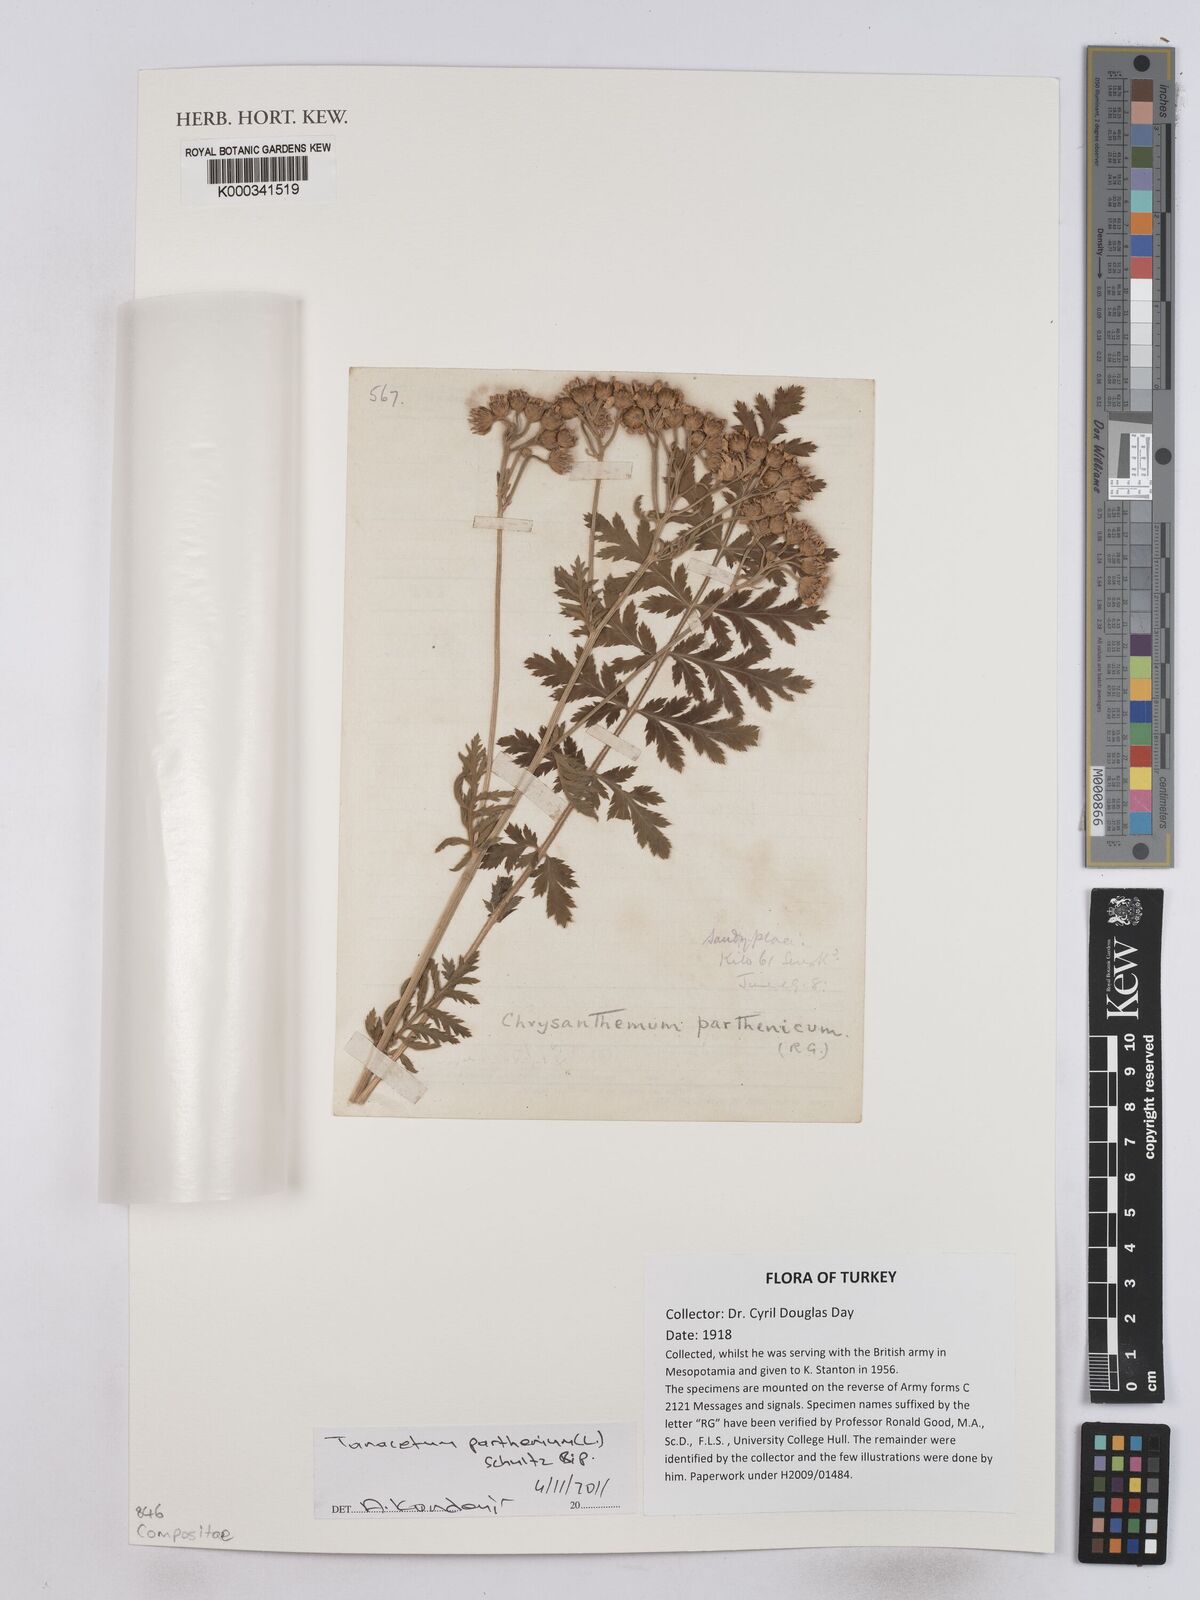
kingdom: Plantae
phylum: Tracheophyta
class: Magnoliopsida
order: Asterales
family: Asteraceae
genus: Tanacetum
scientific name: Tanacetum parthenium
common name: Feverfew
